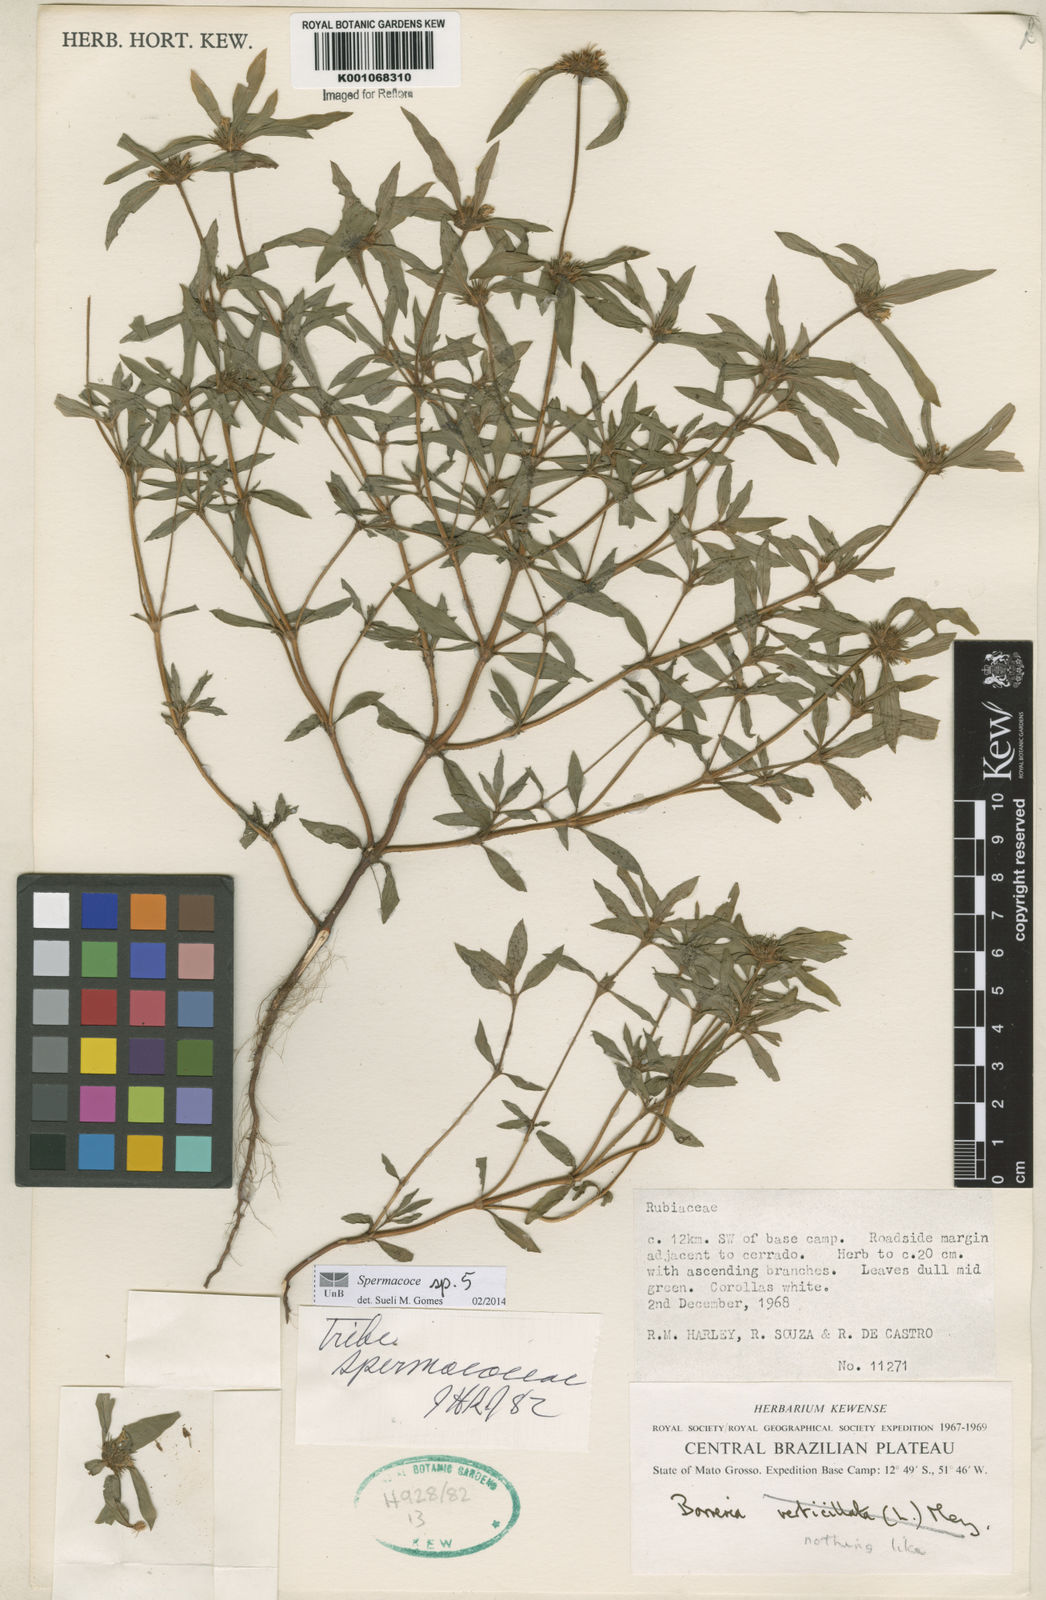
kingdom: Plantae
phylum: Tracheophyta
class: Magnoliopsida
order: Gentianales
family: Rubiaceae
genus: Spermacoce
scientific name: Spermacoce
